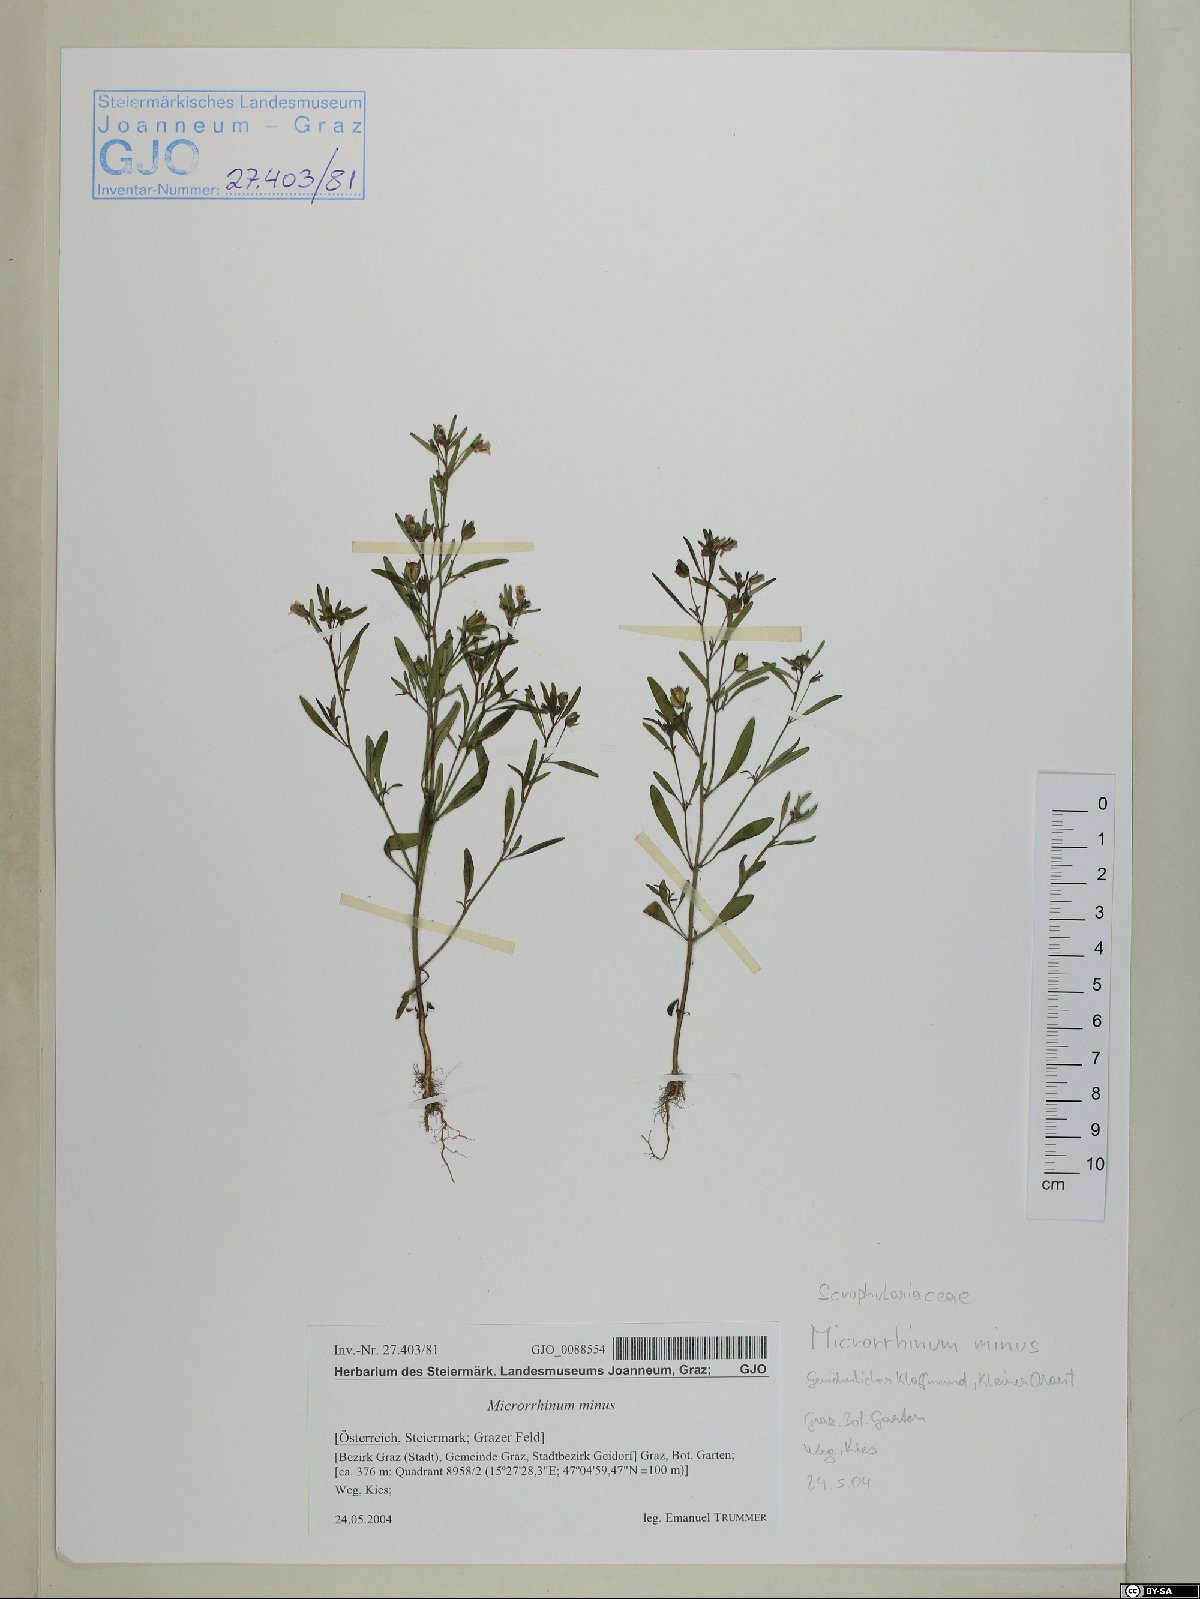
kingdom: Plantae
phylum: Tracheophyta
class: Magnoliopsida
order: Lamiales
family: Plantaginaceae
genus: Chaenorhinum
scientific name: Chaenorhinum minus
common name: Dwarf snapdragon
